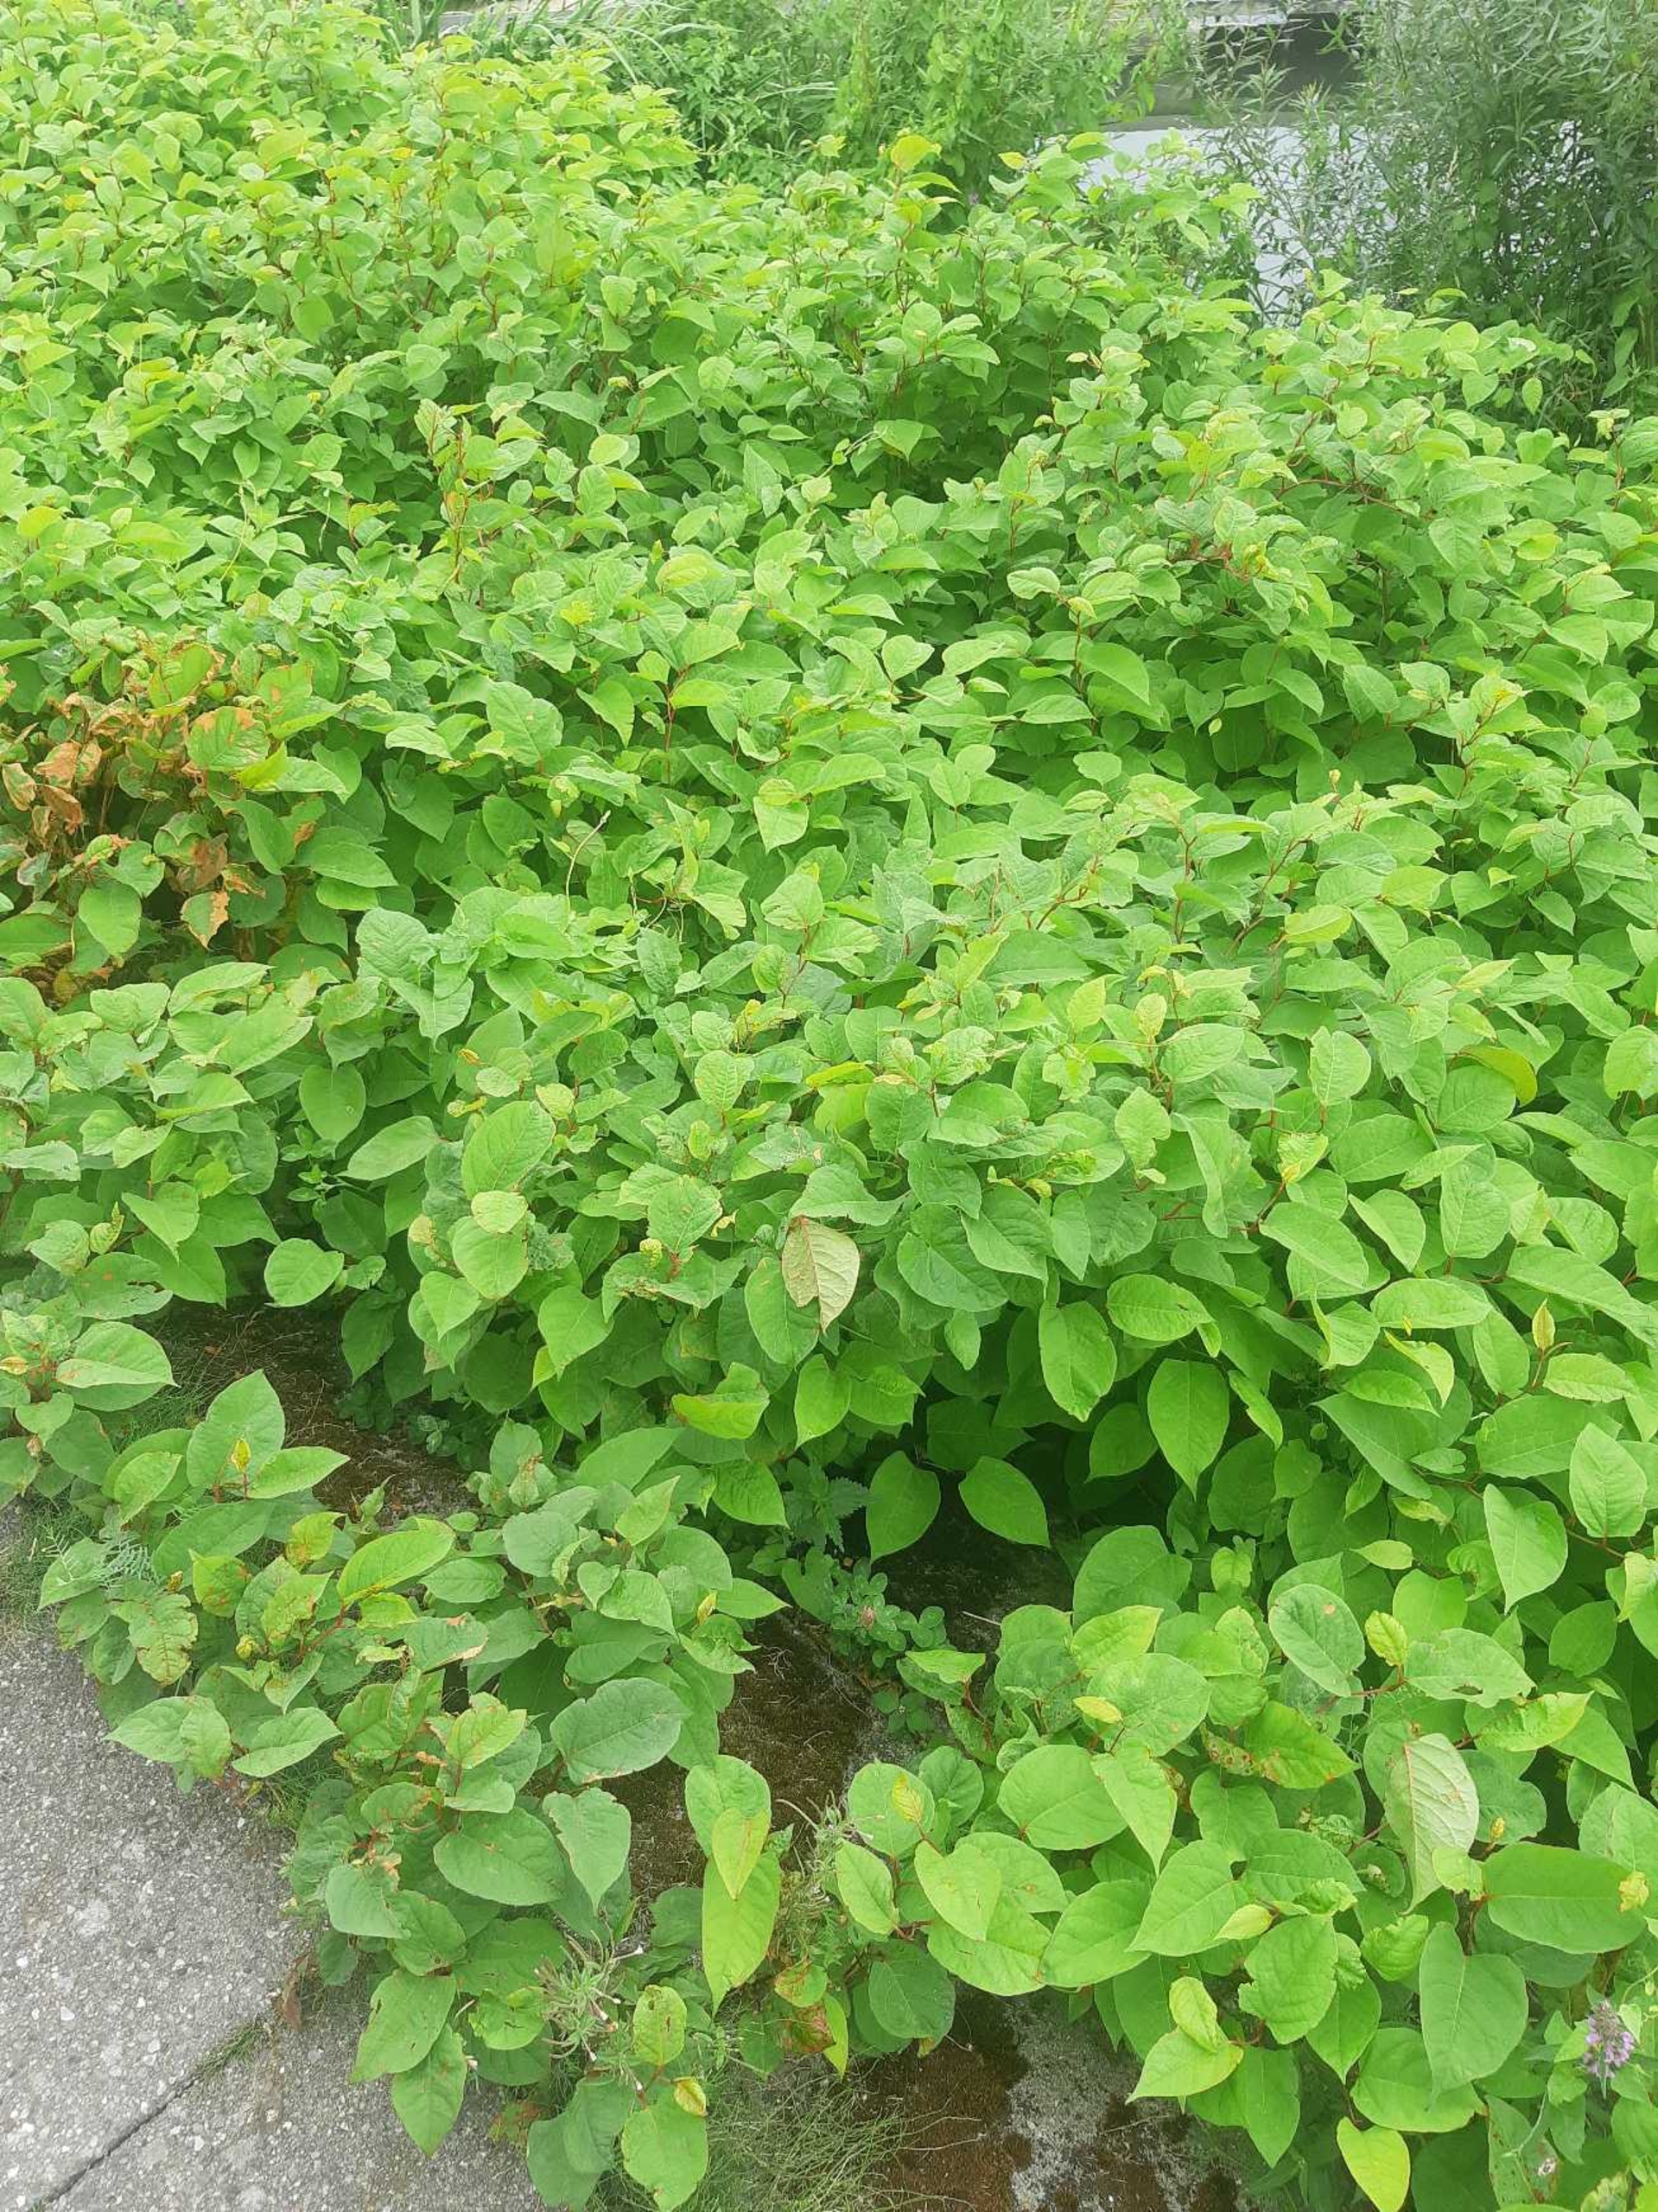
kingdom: Plantae
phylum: Tracheophyta
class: Magnoliopsida
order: Caryophyllales
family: Polygonaceae
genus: Reynoutria
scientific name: Reynoutria japonica
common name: Japan-pileurt
